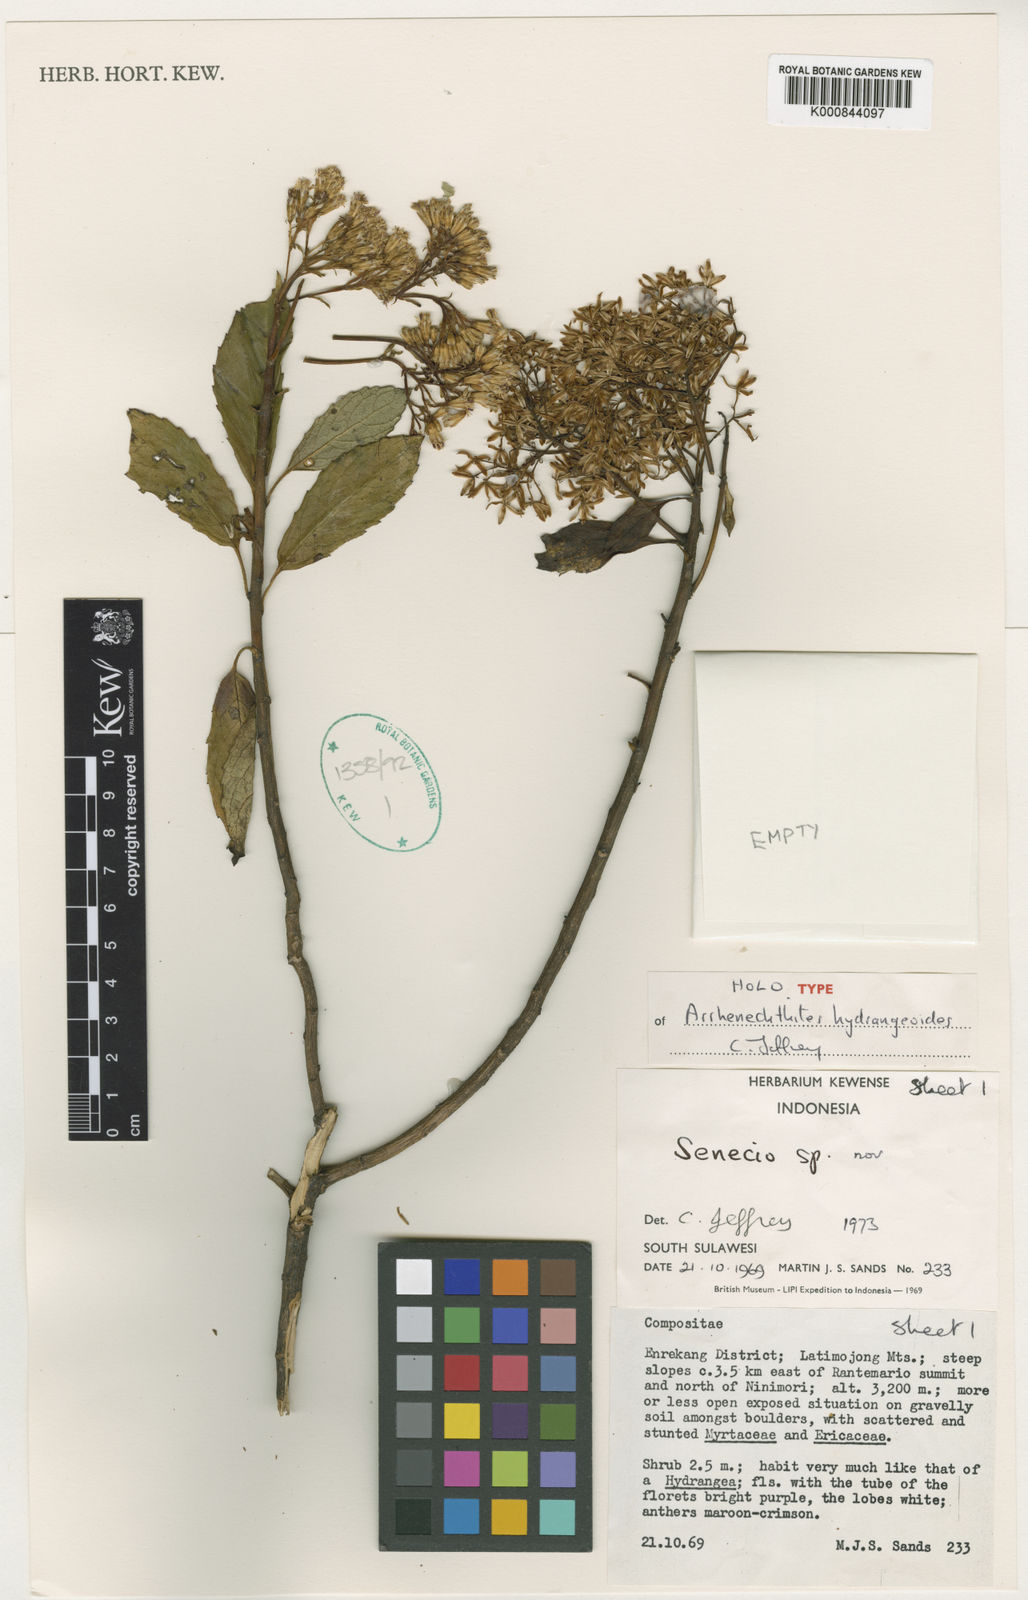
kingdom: Plantae
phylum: Tracheophyta
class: Magnoliopsida
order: Asterales
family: Asteraceae
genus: Arrhenechthites
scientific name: Arrhenechthites hydrangeoides
